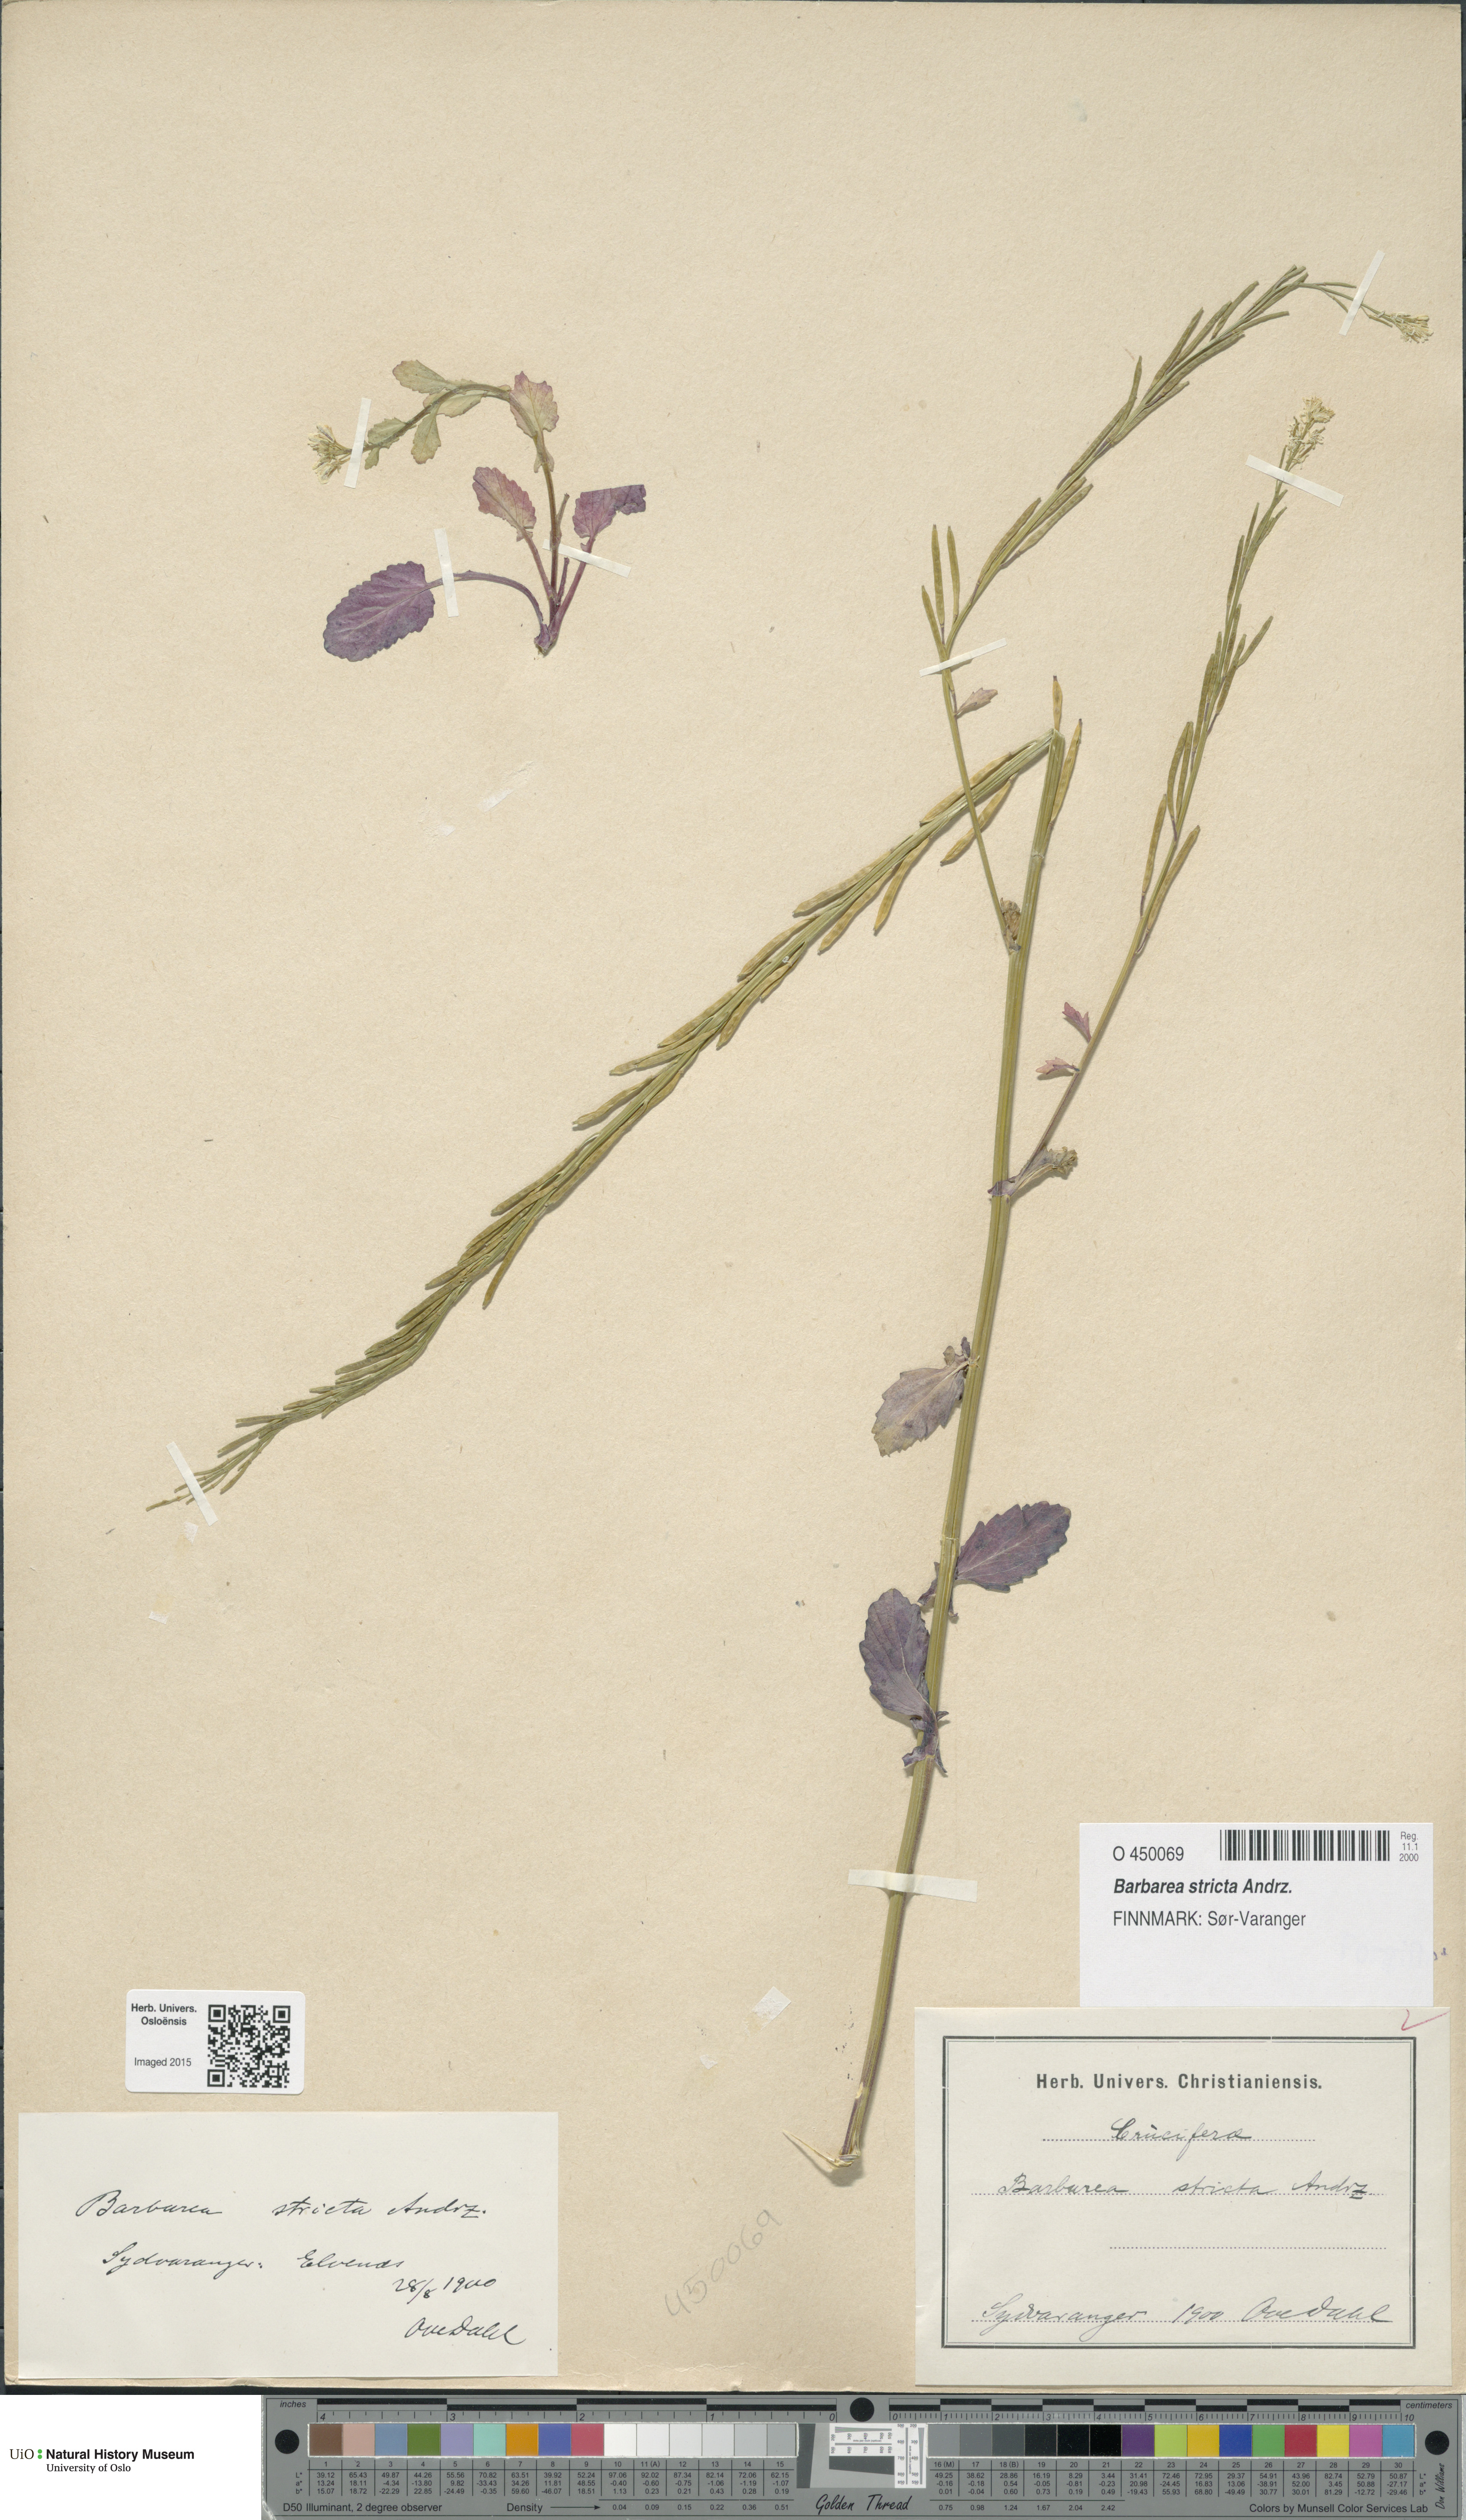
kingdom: Plantae
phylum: Tracheophyta
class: Magnoliopsida
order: Brassicales
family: Brassicaceae
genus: Barbarea
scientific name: Barbarea stricta
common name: Small-flowered winter-cress
